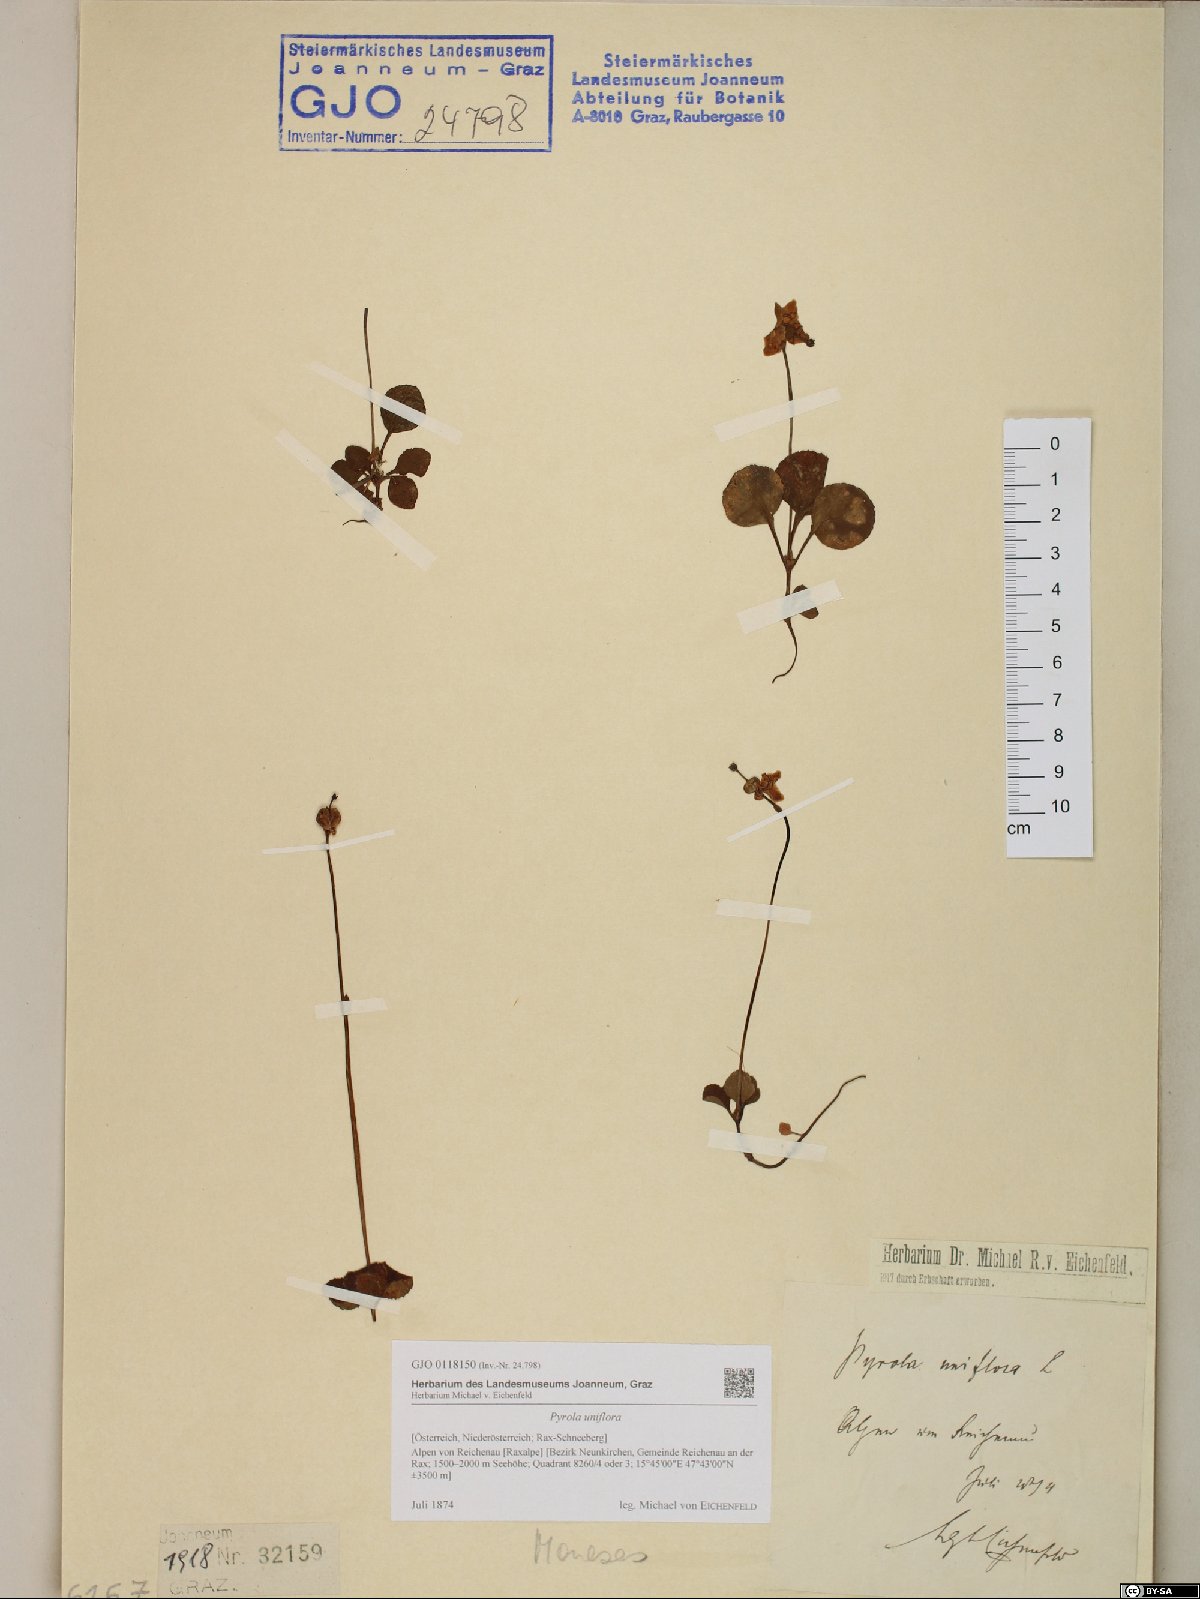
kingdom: Plantae
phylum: Tracheophyta
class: Magnoliopsida
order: Ericales
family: Ericaceae
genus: Moneses
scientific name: Moneses uniflora
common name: One-flowered wintergreen
